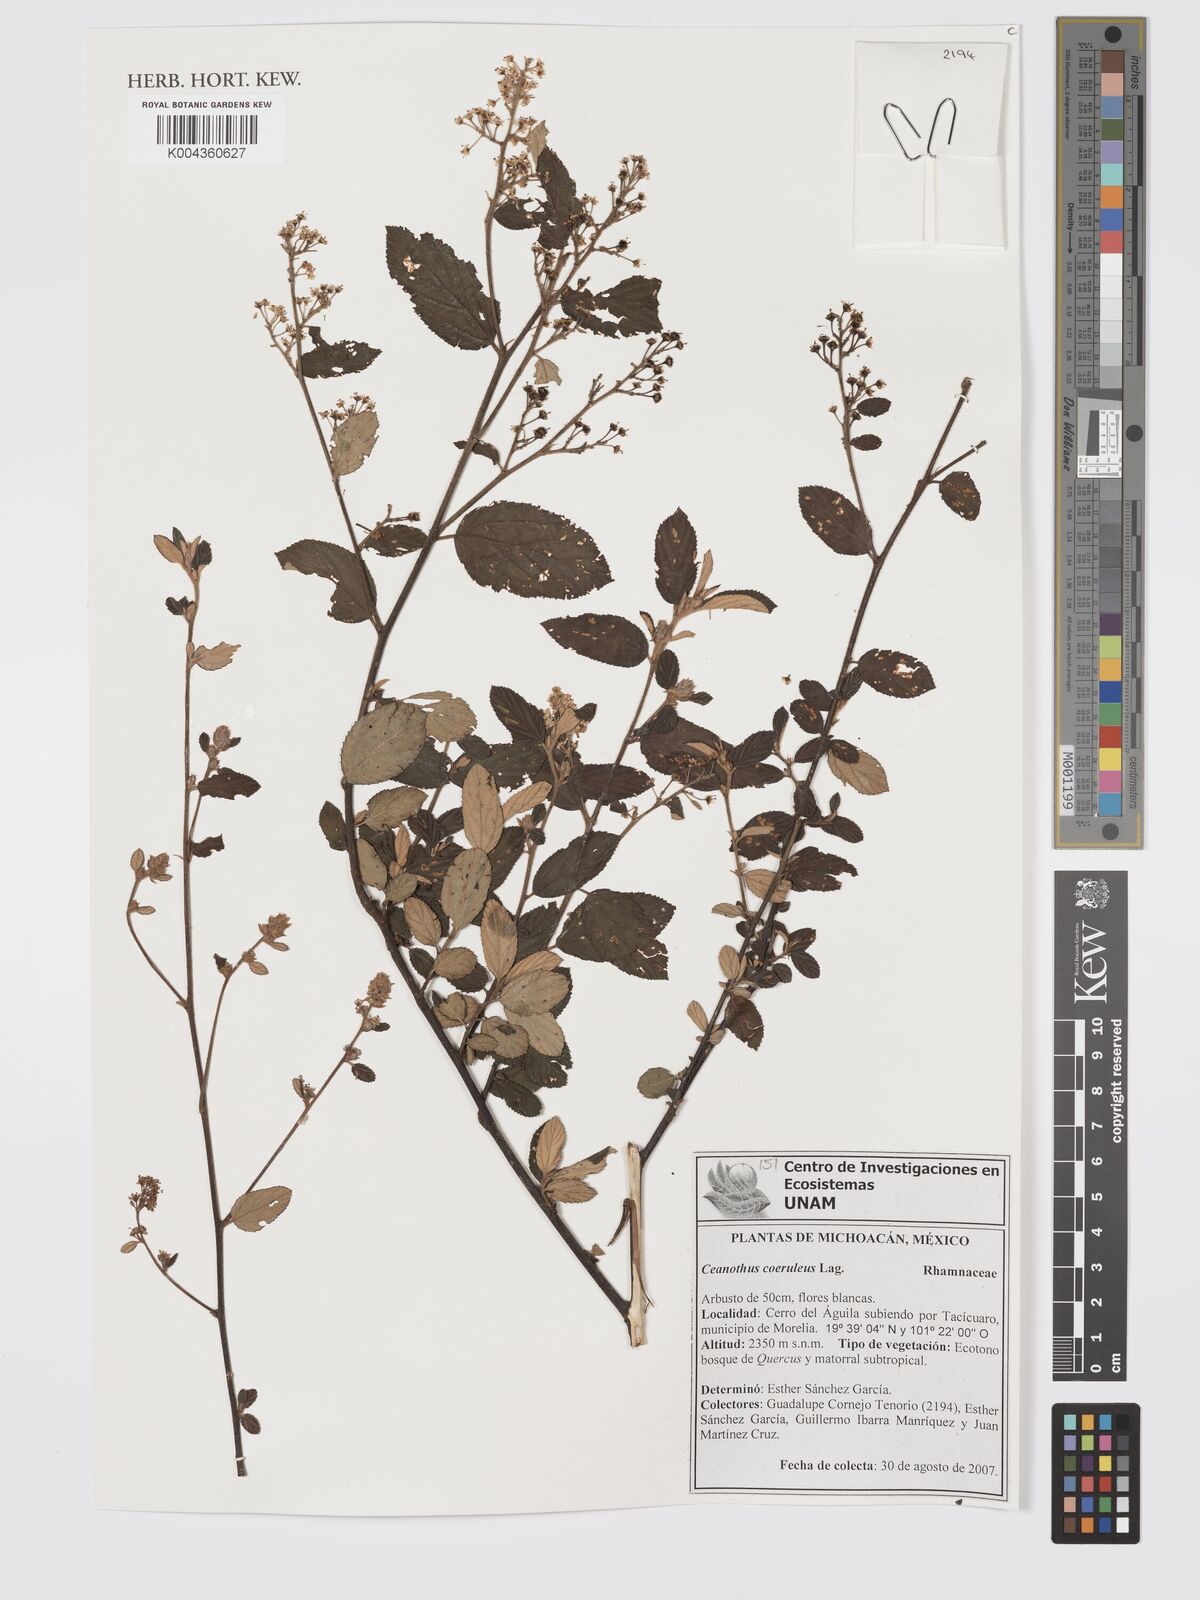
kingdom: Plantae
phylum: Tracheophyta
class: Magnoliopsida
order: Rosales
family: Rhamnaceae
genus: Ceanothus
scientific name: Ceanothus caeruleus
